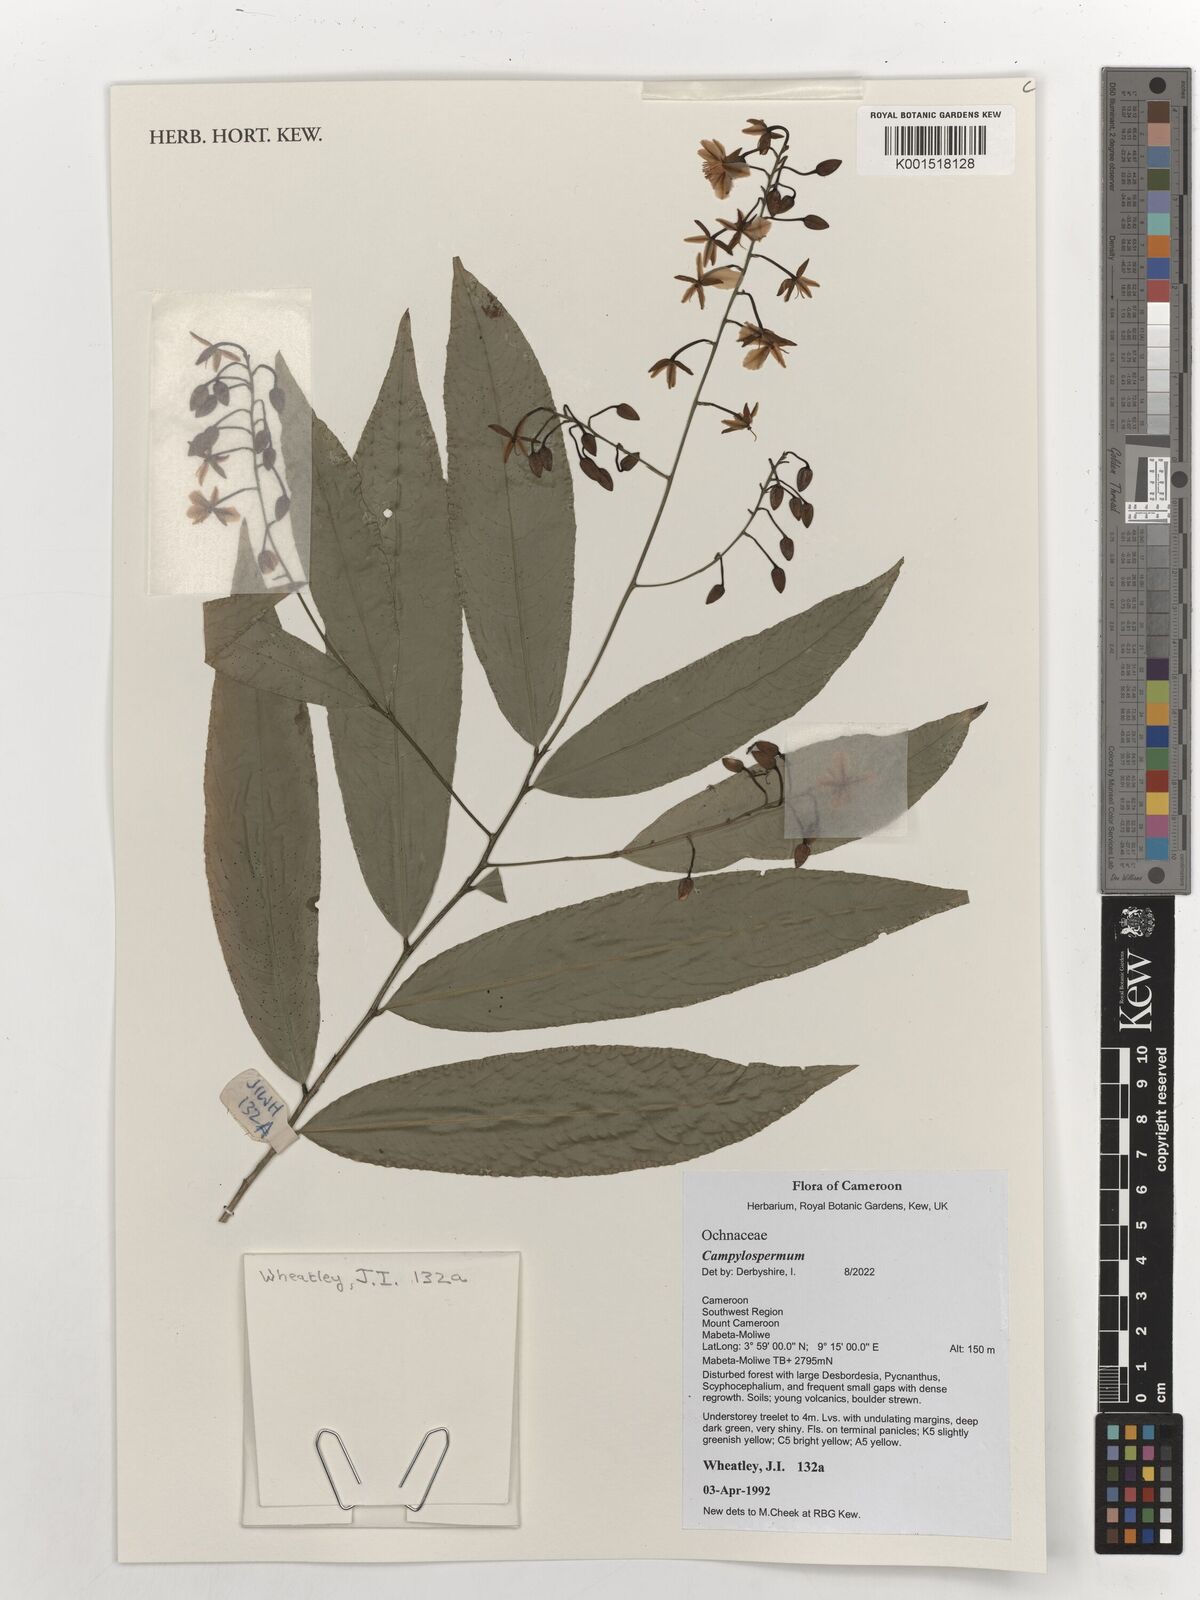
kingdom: Plantae
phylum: Tracheophyta
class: Magnoliopsida
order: Malpighiales
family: Ochnaceae
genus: Campylospermum
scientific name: Campylospermum reticulatum
